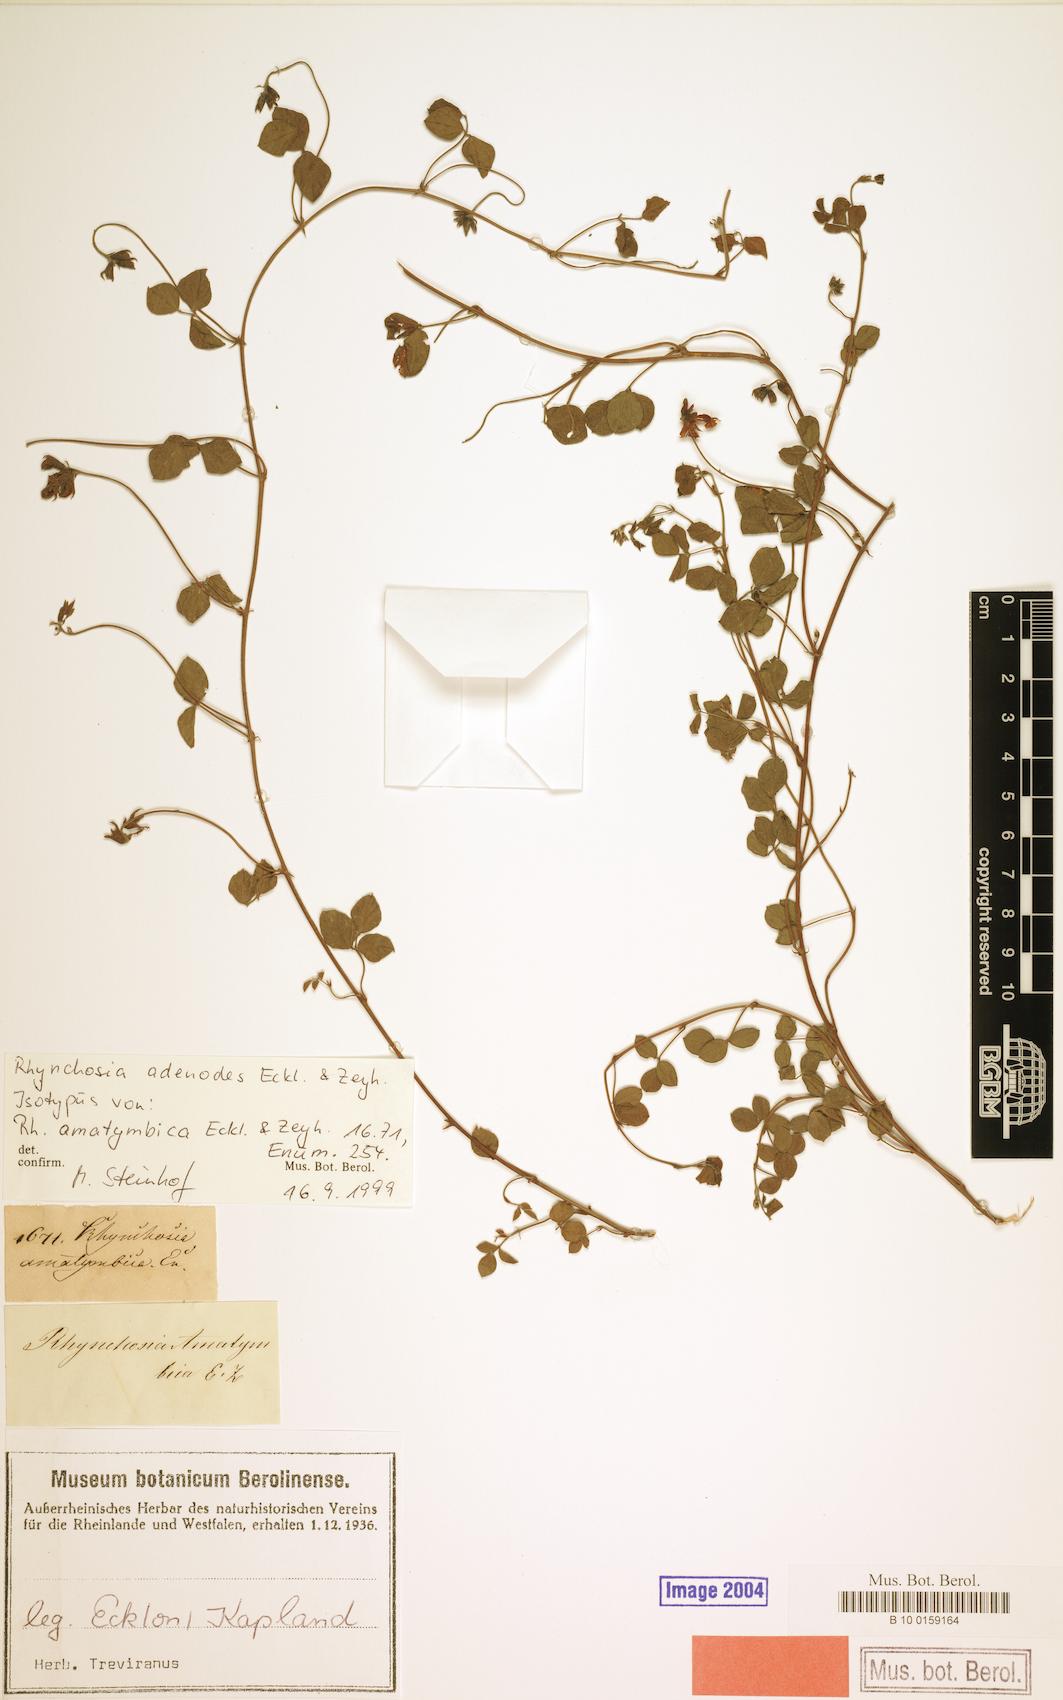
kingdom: Plantae
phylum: Tracheophyta
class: Magnoliopsida
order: Fabales
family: Fabaceae
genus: Rhynchosia
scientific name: Rhynchosia adenodes
